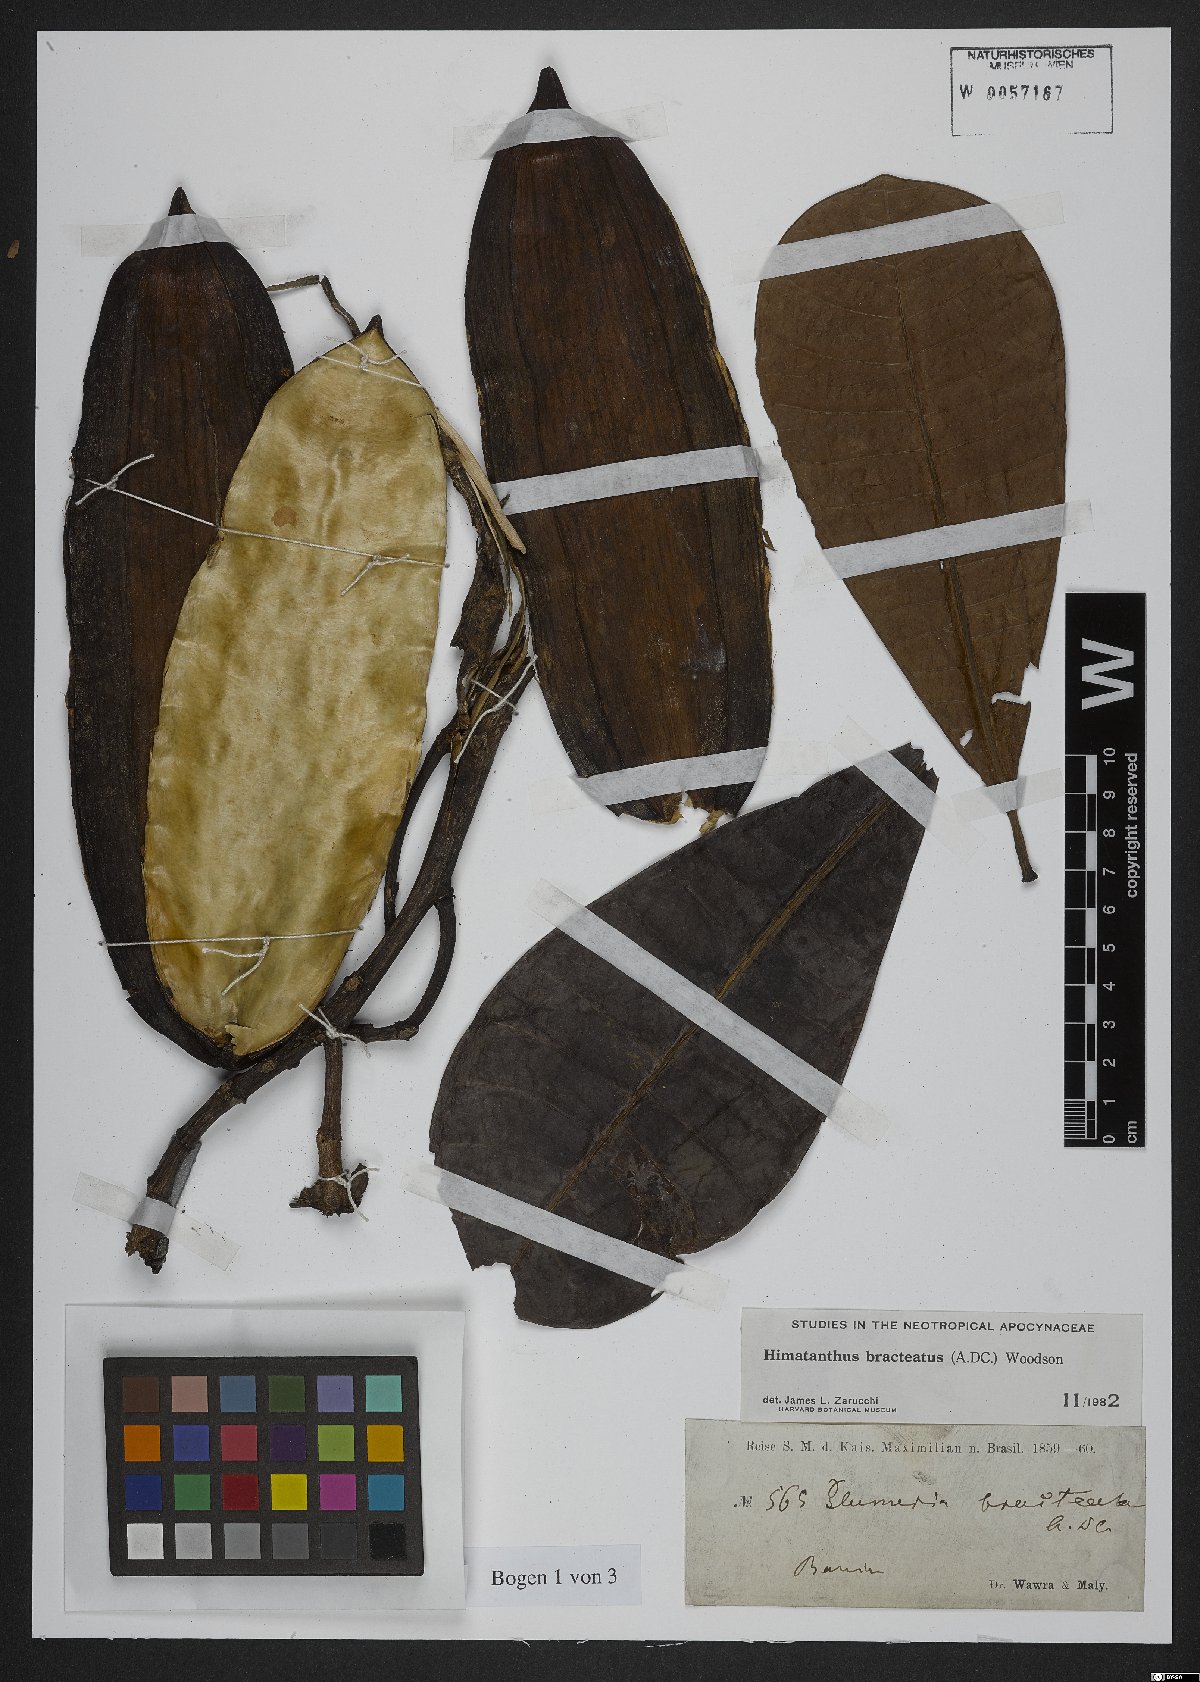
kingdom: Plantae
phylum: Tracheophyta
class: Magnoliopsida
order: Gentianales
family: Apocynaceae
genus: Himatanthus
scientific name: Himatanthus bracteatus
